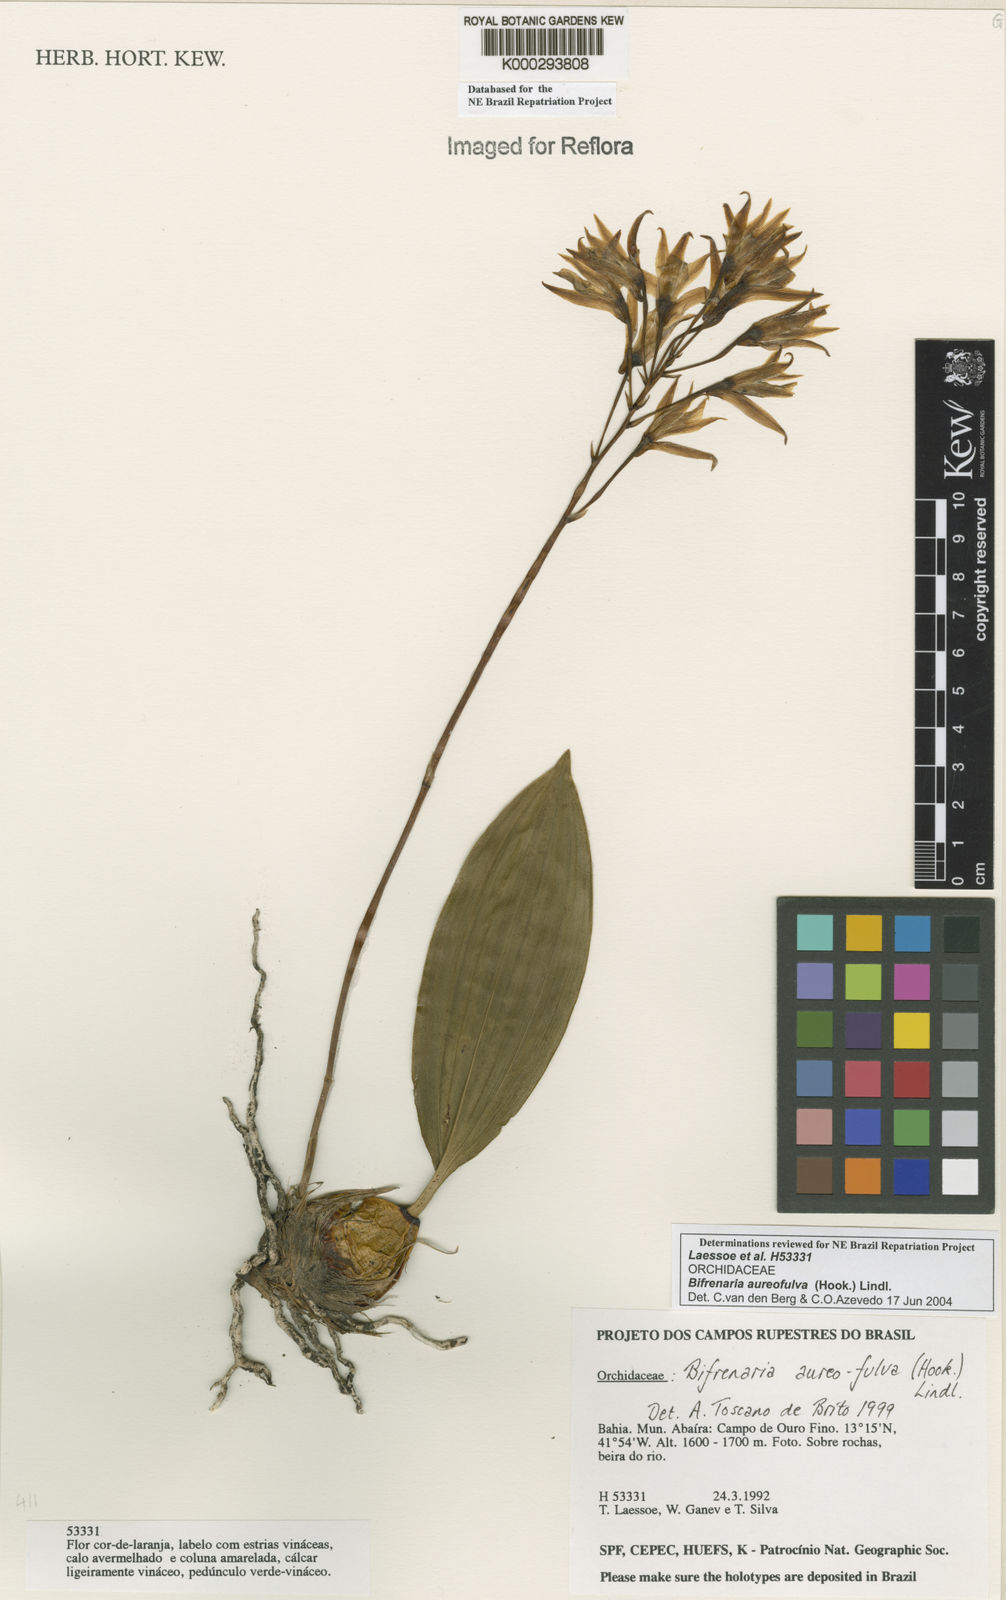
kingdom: Plantae
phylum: Tracheophyta
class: Liliopsida
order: Asparagales
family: Orchidaceae
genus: Bifrenaria
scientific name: Bifrenaria aureofulva
